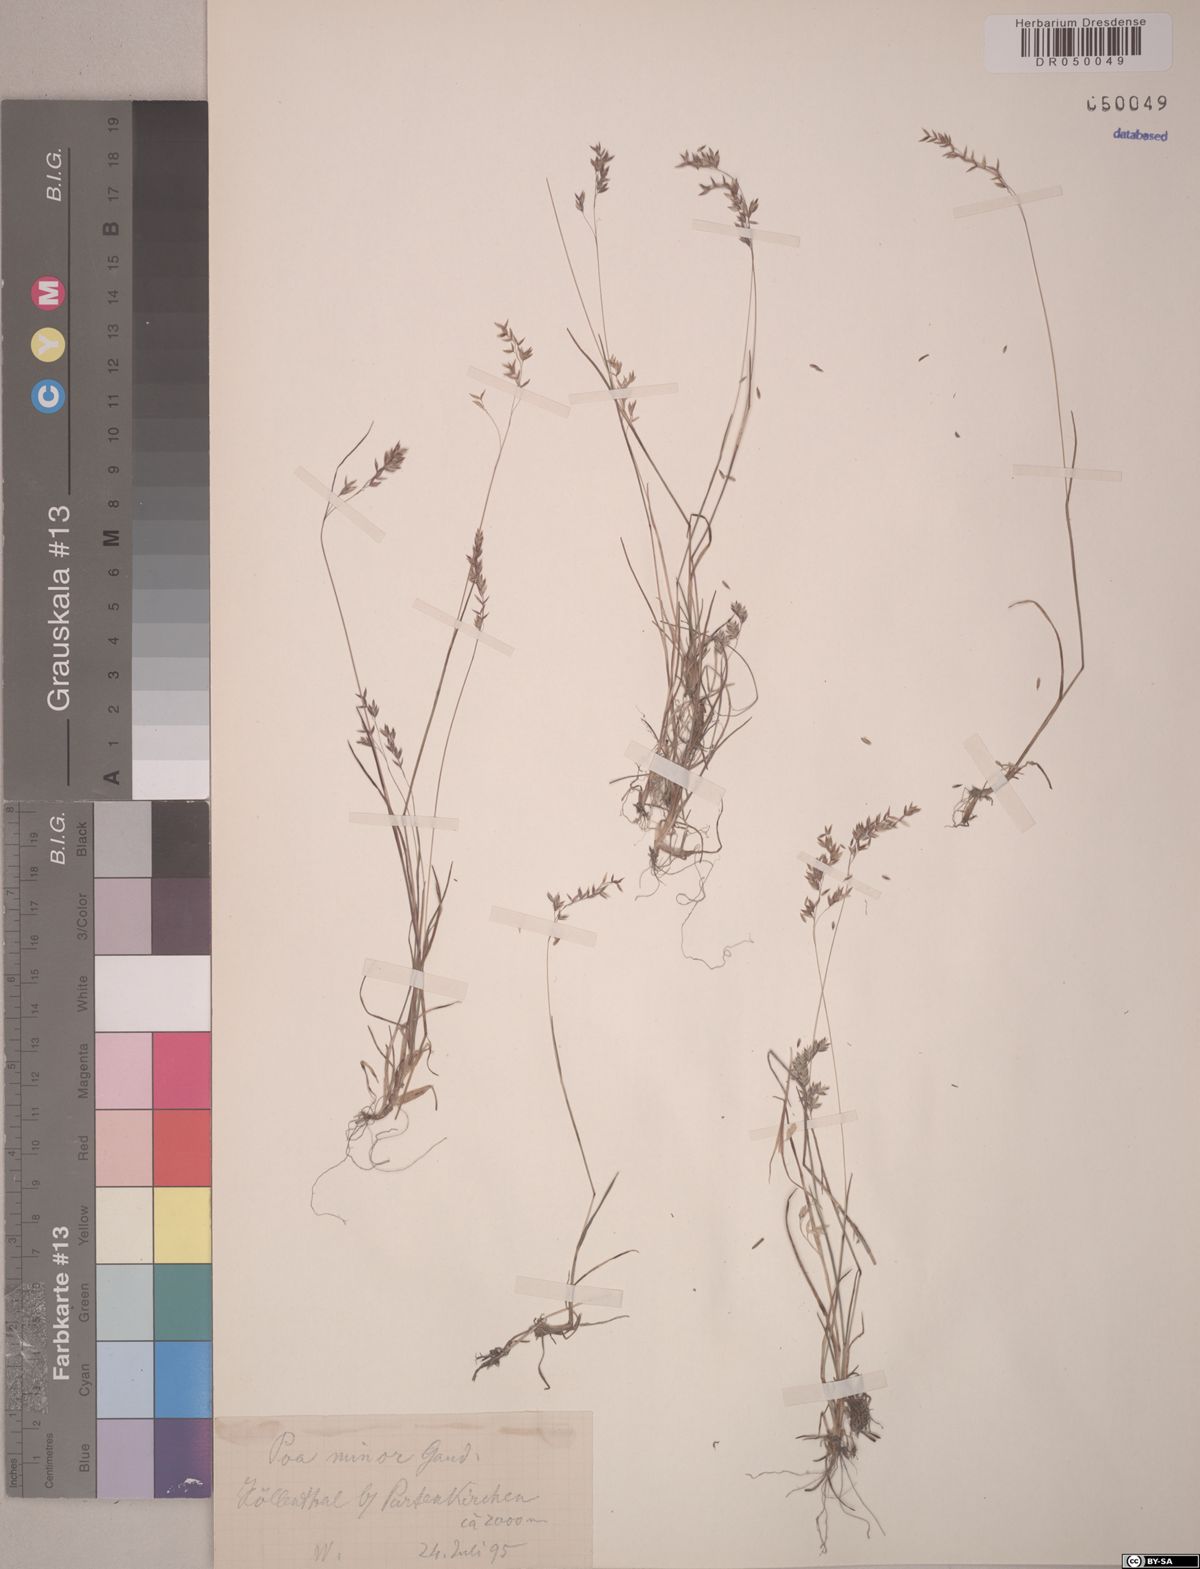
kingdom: Plantae
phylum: Tracheophyta
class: Liliopsida
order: Poales
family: Poaceae
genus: Poa
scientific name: Poa minor
